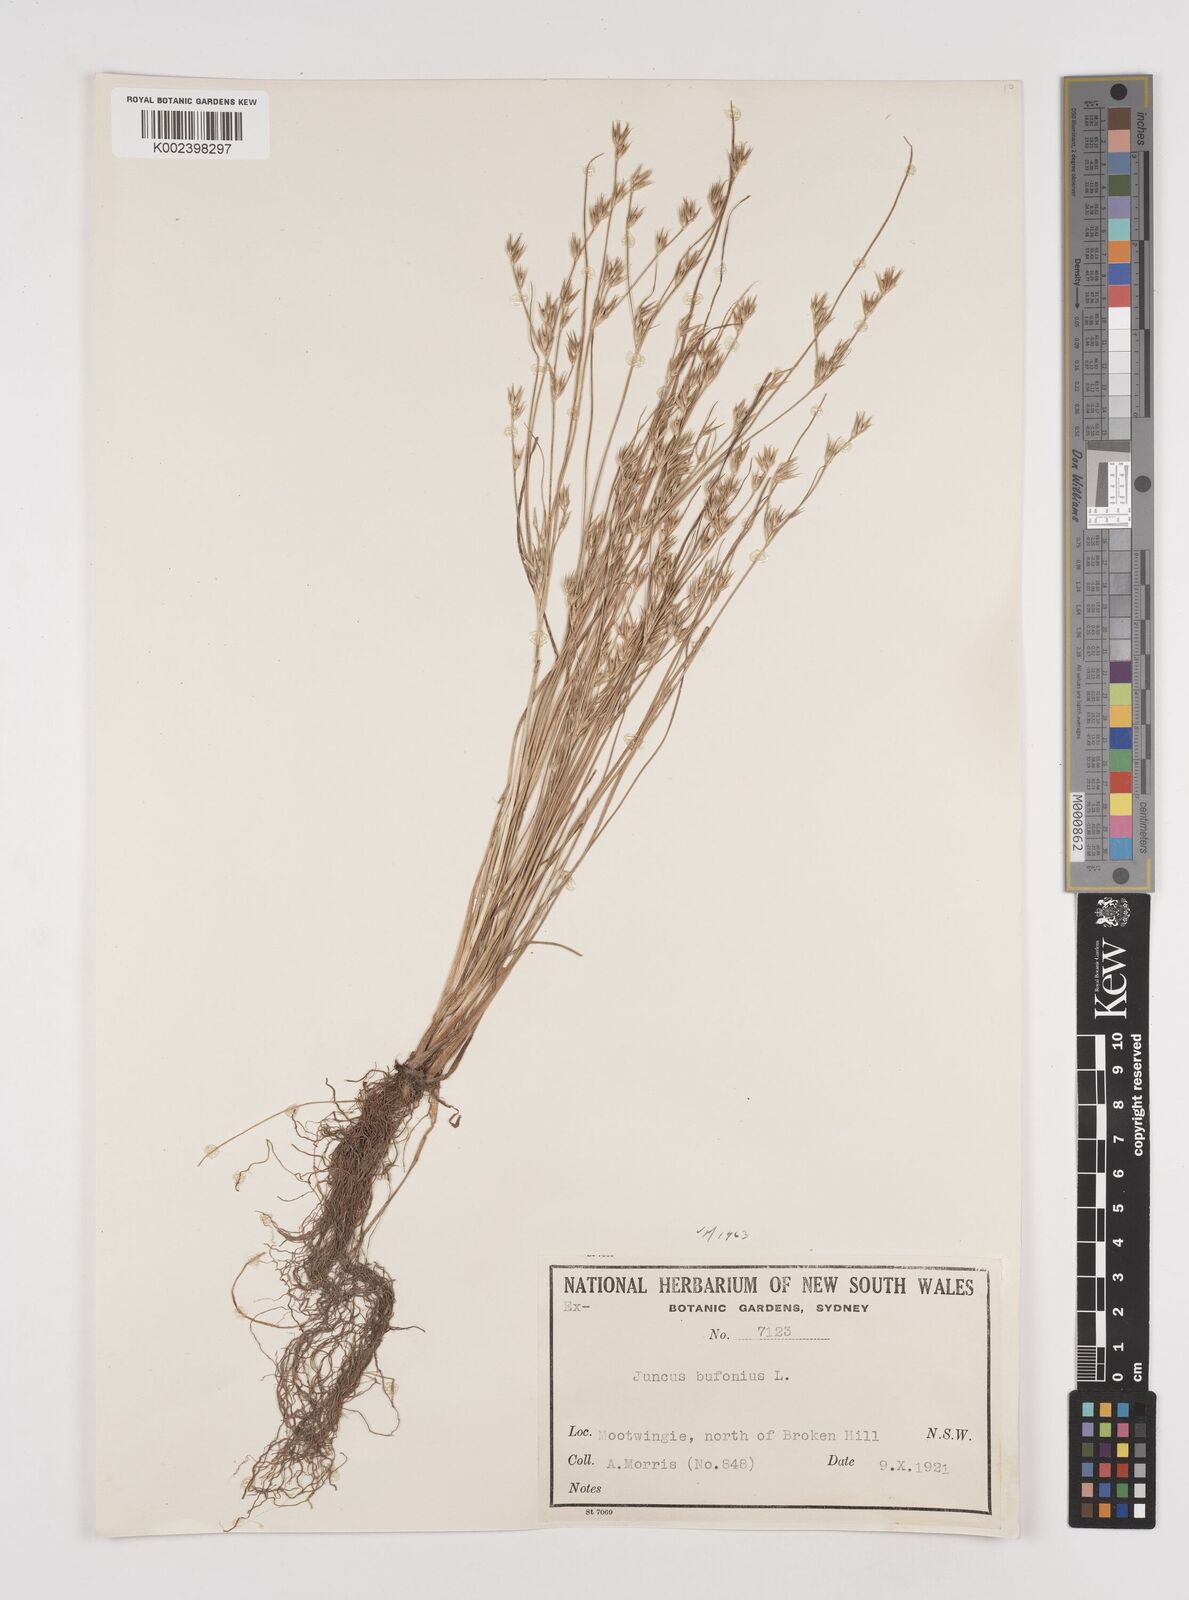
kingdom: Plantae
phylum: Tracheophyta
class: Liliopsida
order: Poales
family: Juncaceae
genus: Juncus
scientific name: Juncus bufonius
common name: Toad rush
